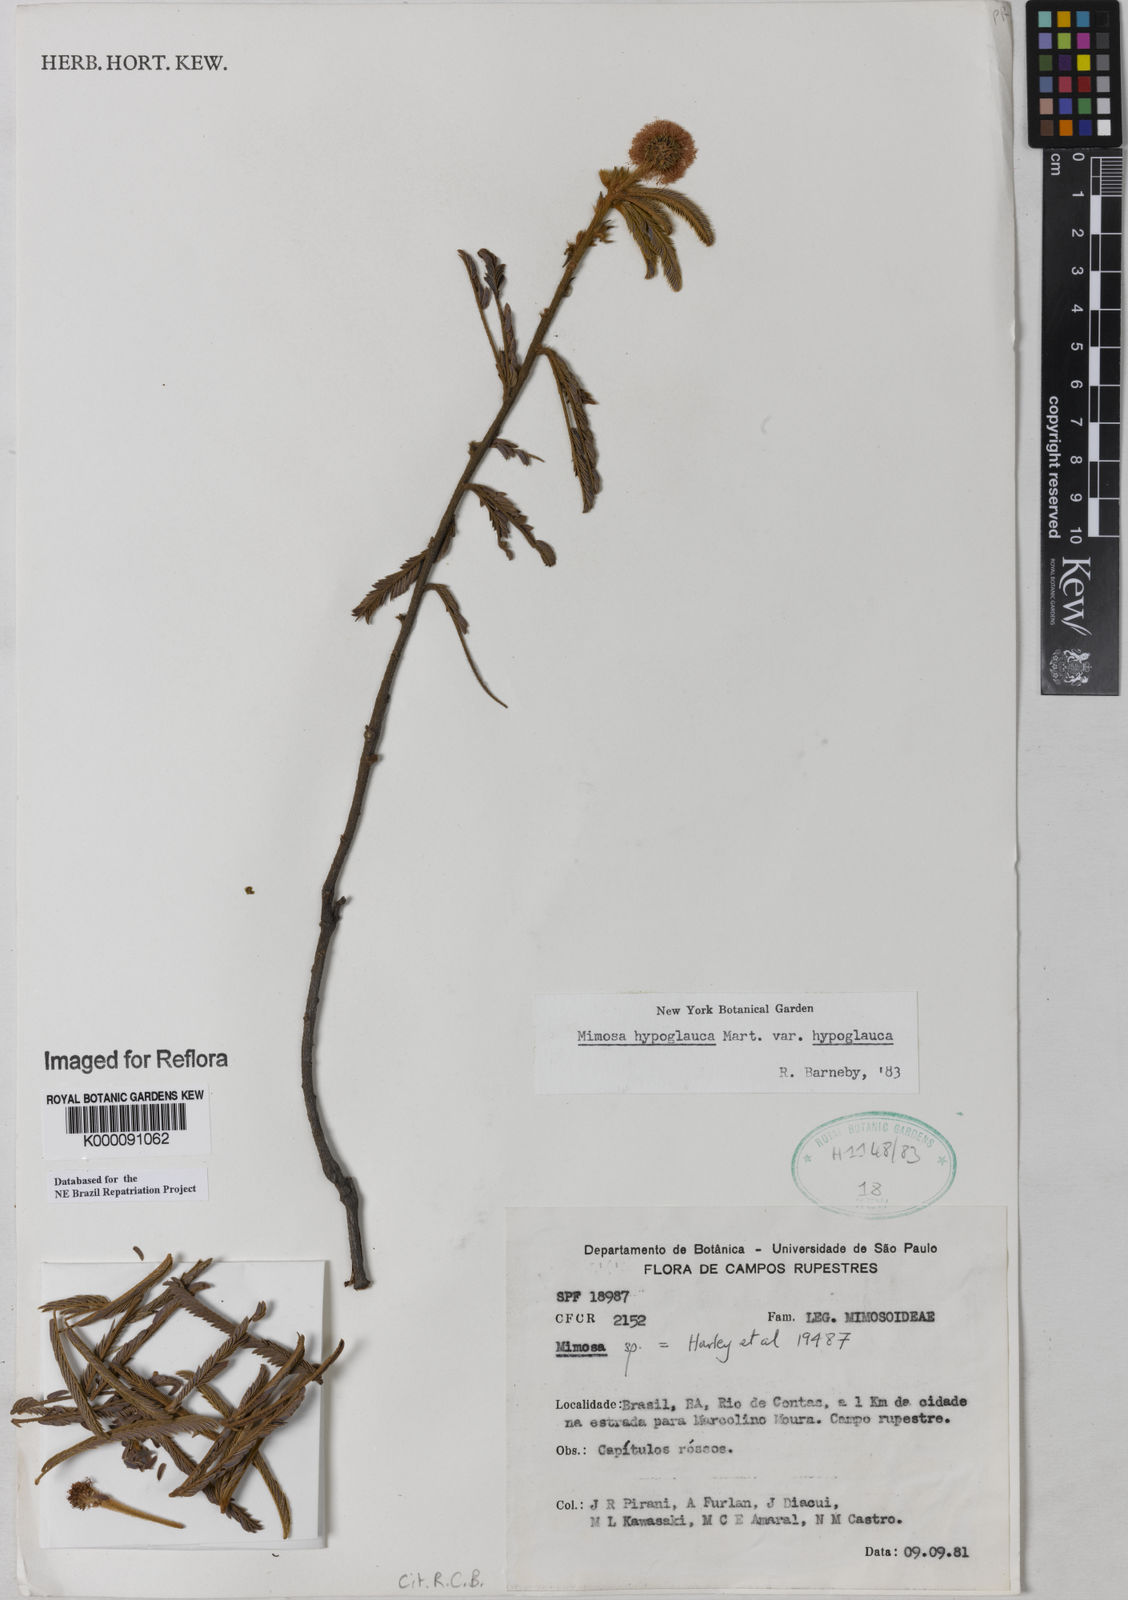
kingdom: Plantae
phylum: Tracheophyta
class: Magnoliopsida
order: Fabales
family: Fabaceae
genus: Mimosa
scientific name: Mimosa hypoglauca
